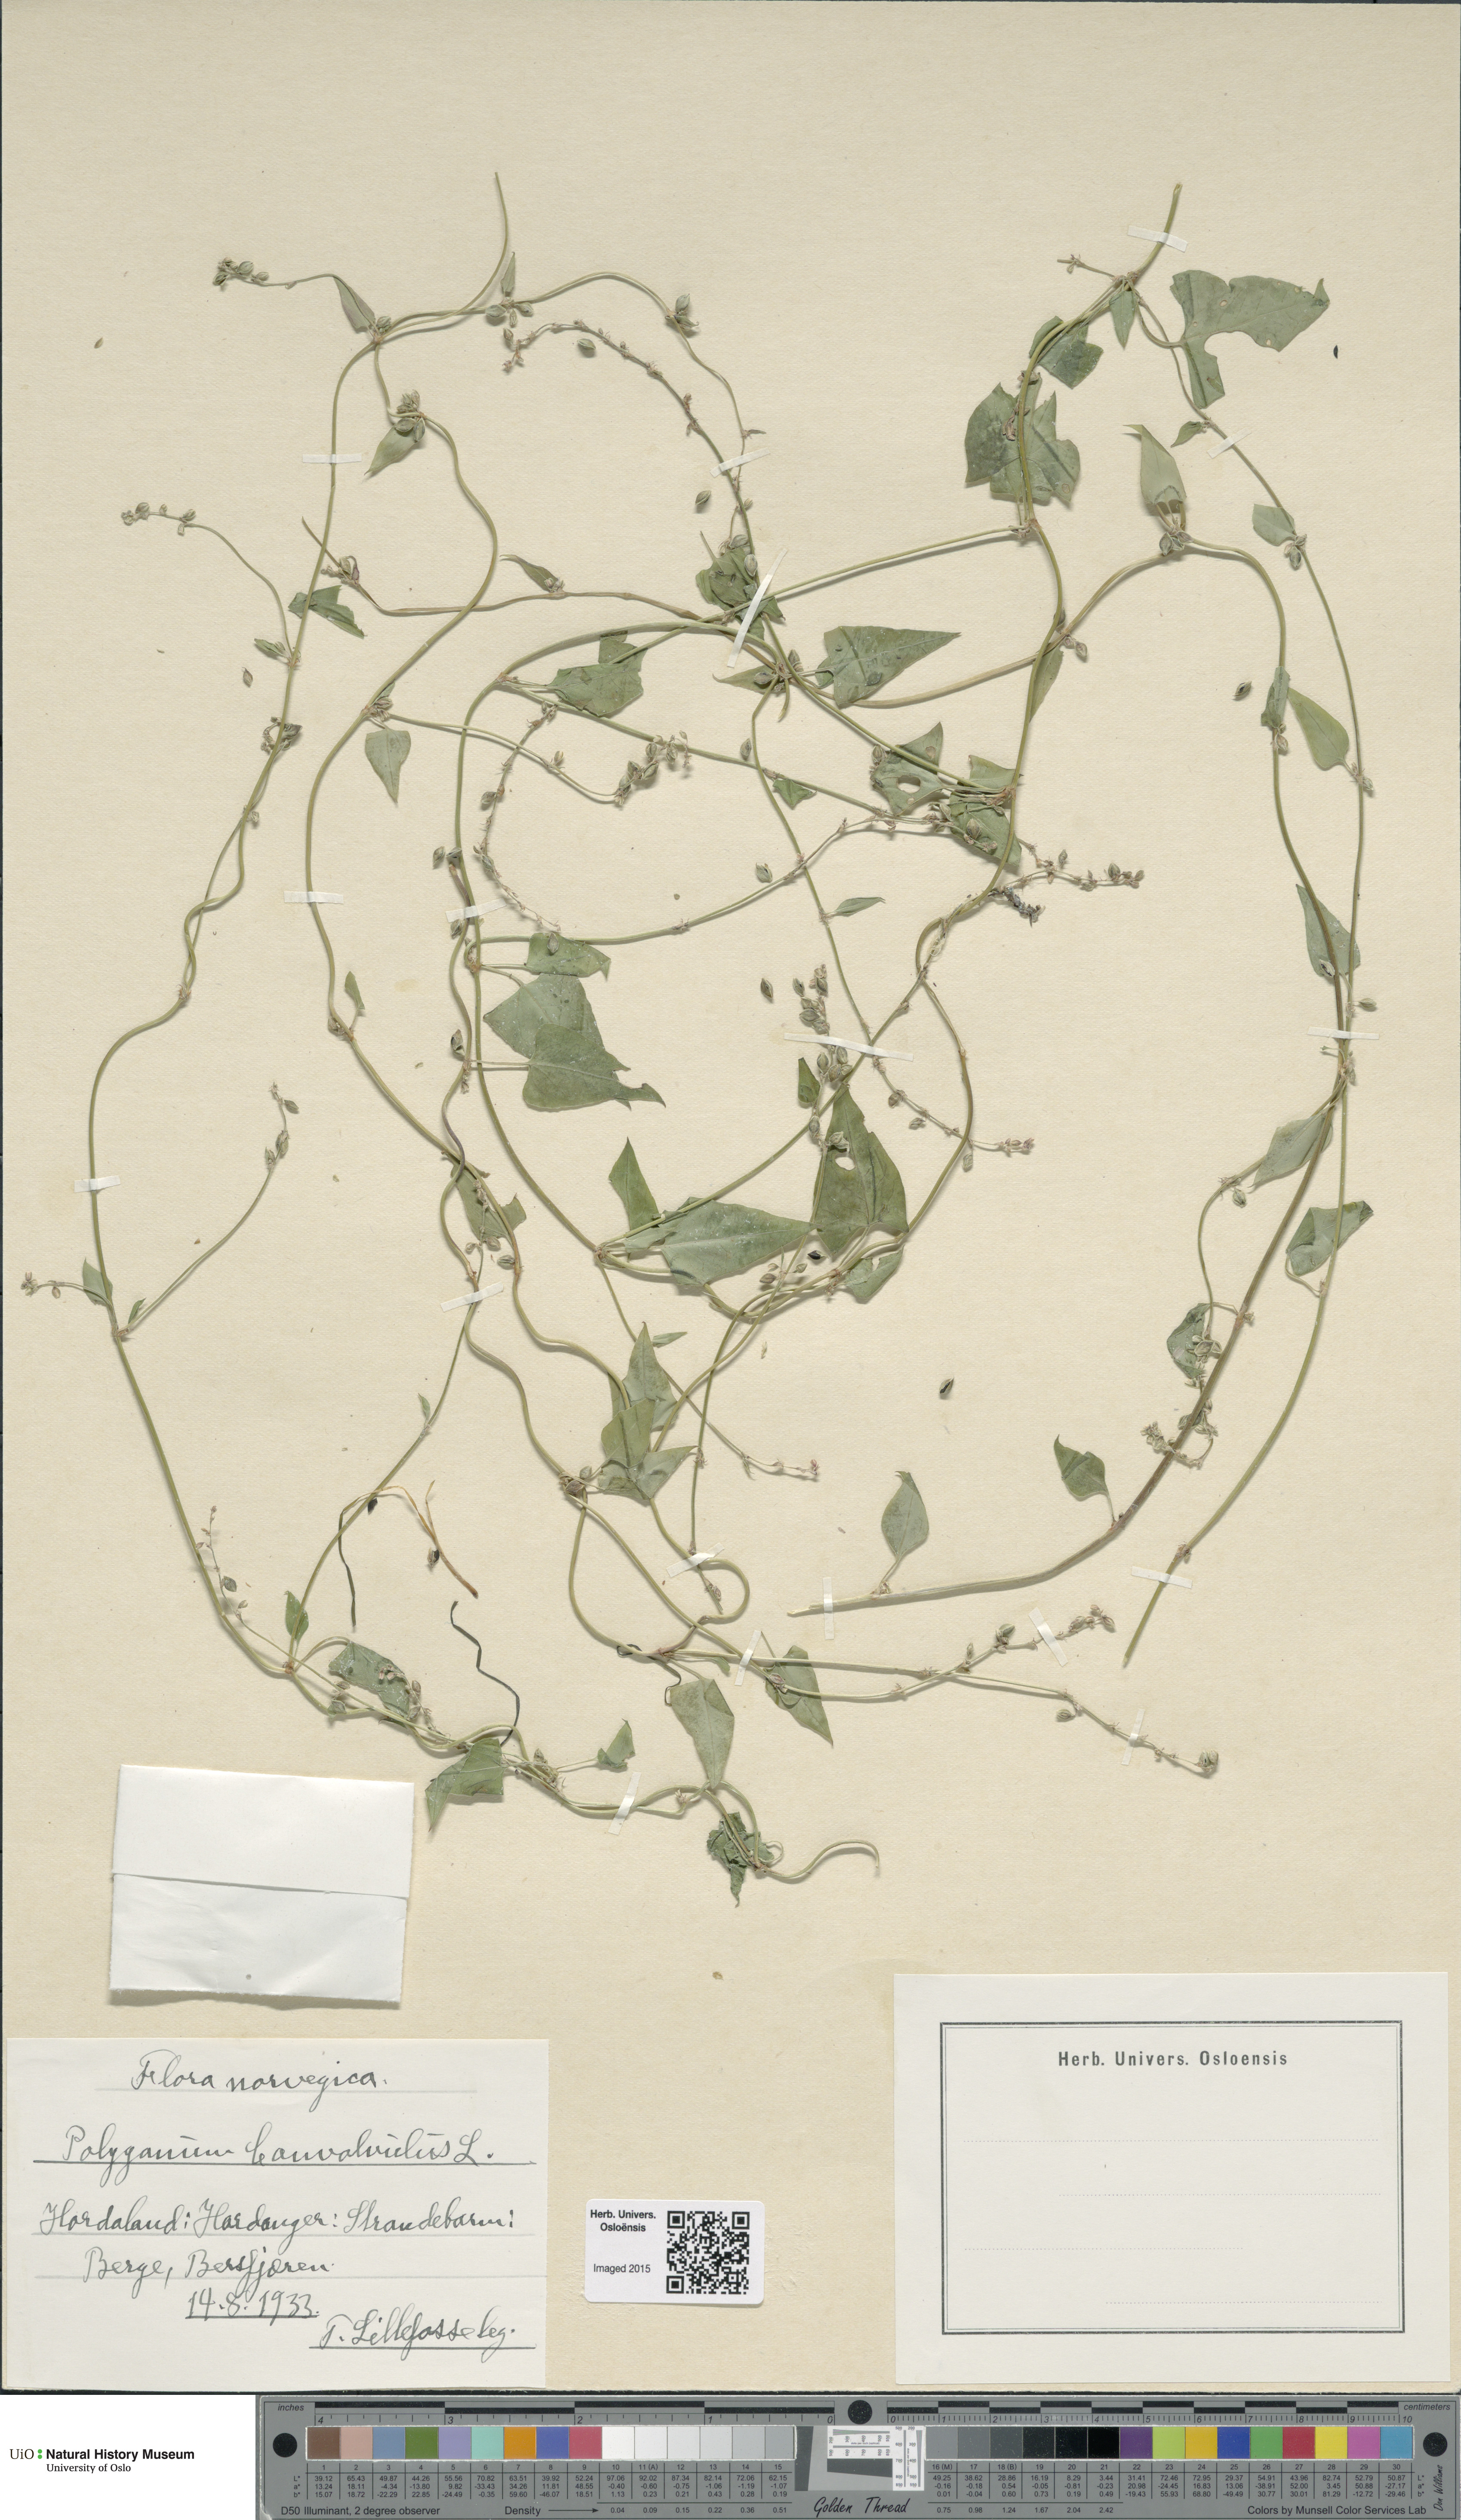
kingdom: Plantae
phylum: Tracheophyta
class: Magnoliopsida
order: Caryophyllales
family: Polygonaceae
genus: Fallopia
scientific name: Fallopia convolvulus
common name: Black bindweed
